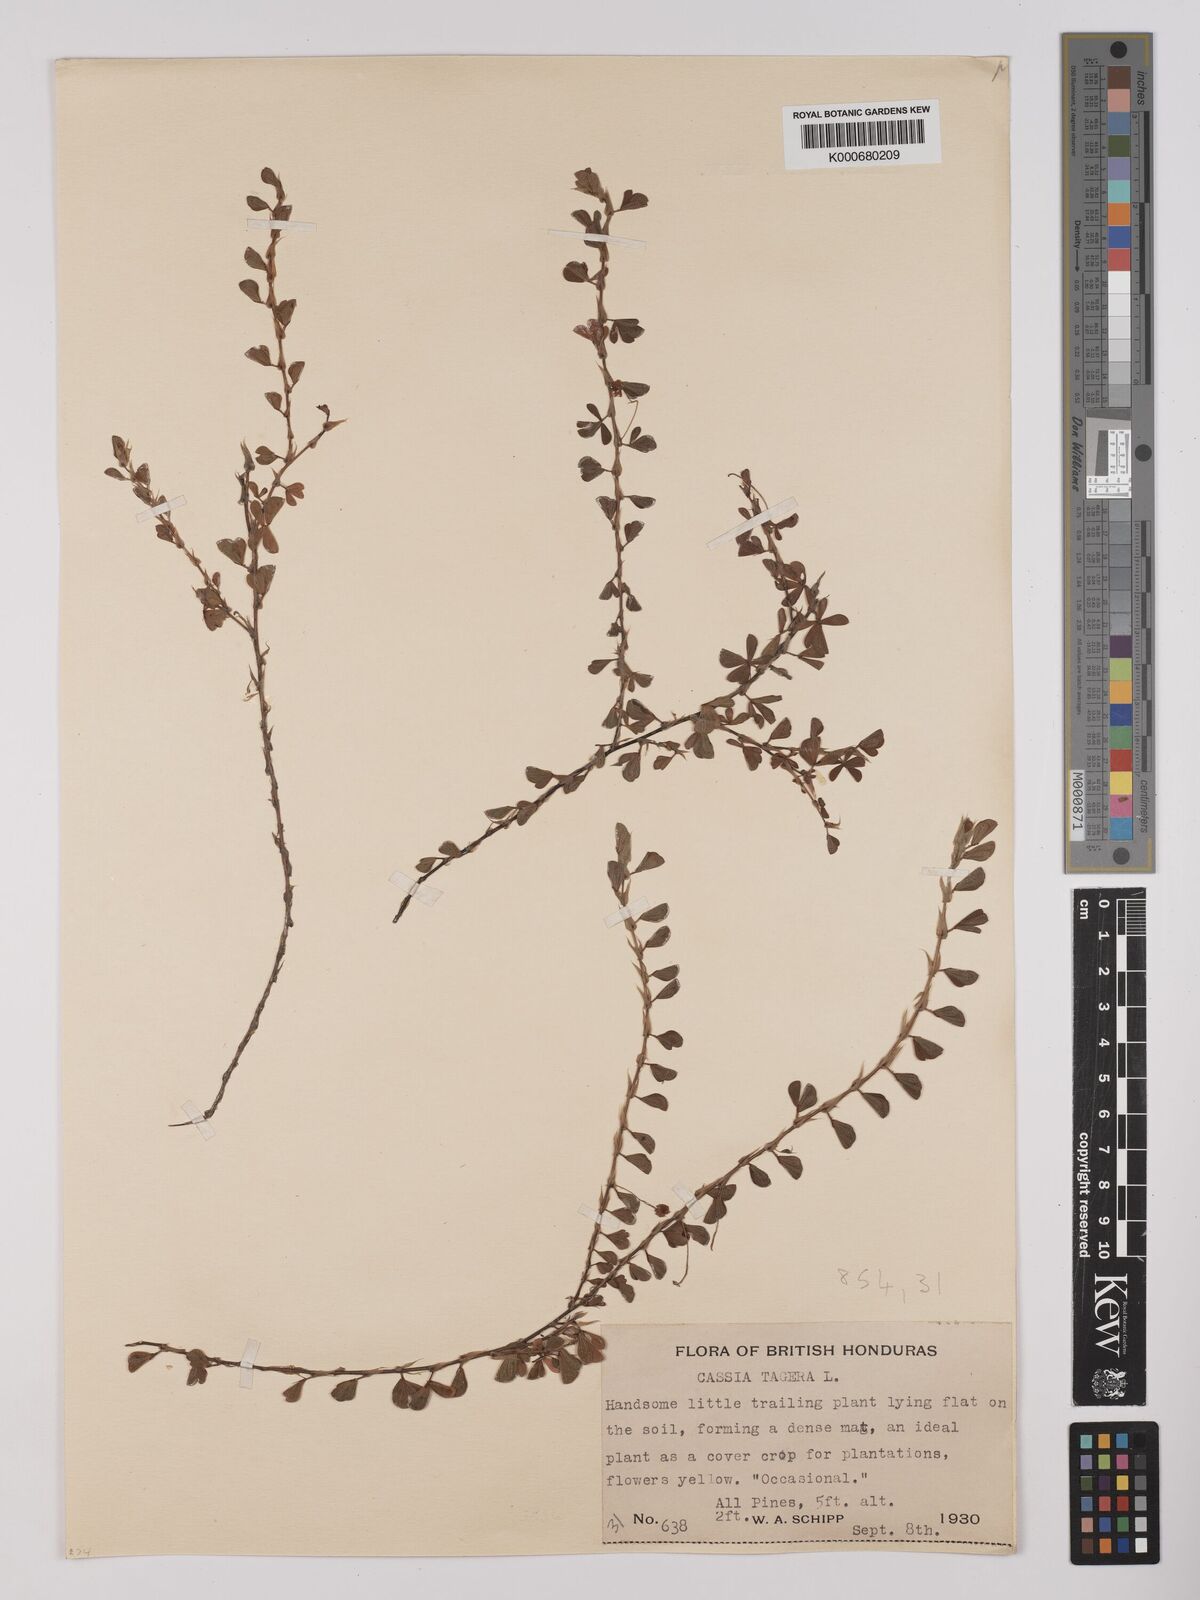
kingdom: Plantae
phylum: Tracheophyta
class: Magnoliopsida
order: Fabales
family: Fabaceae
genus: Chamaecrista
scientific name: Chamaecrista kunthiana
